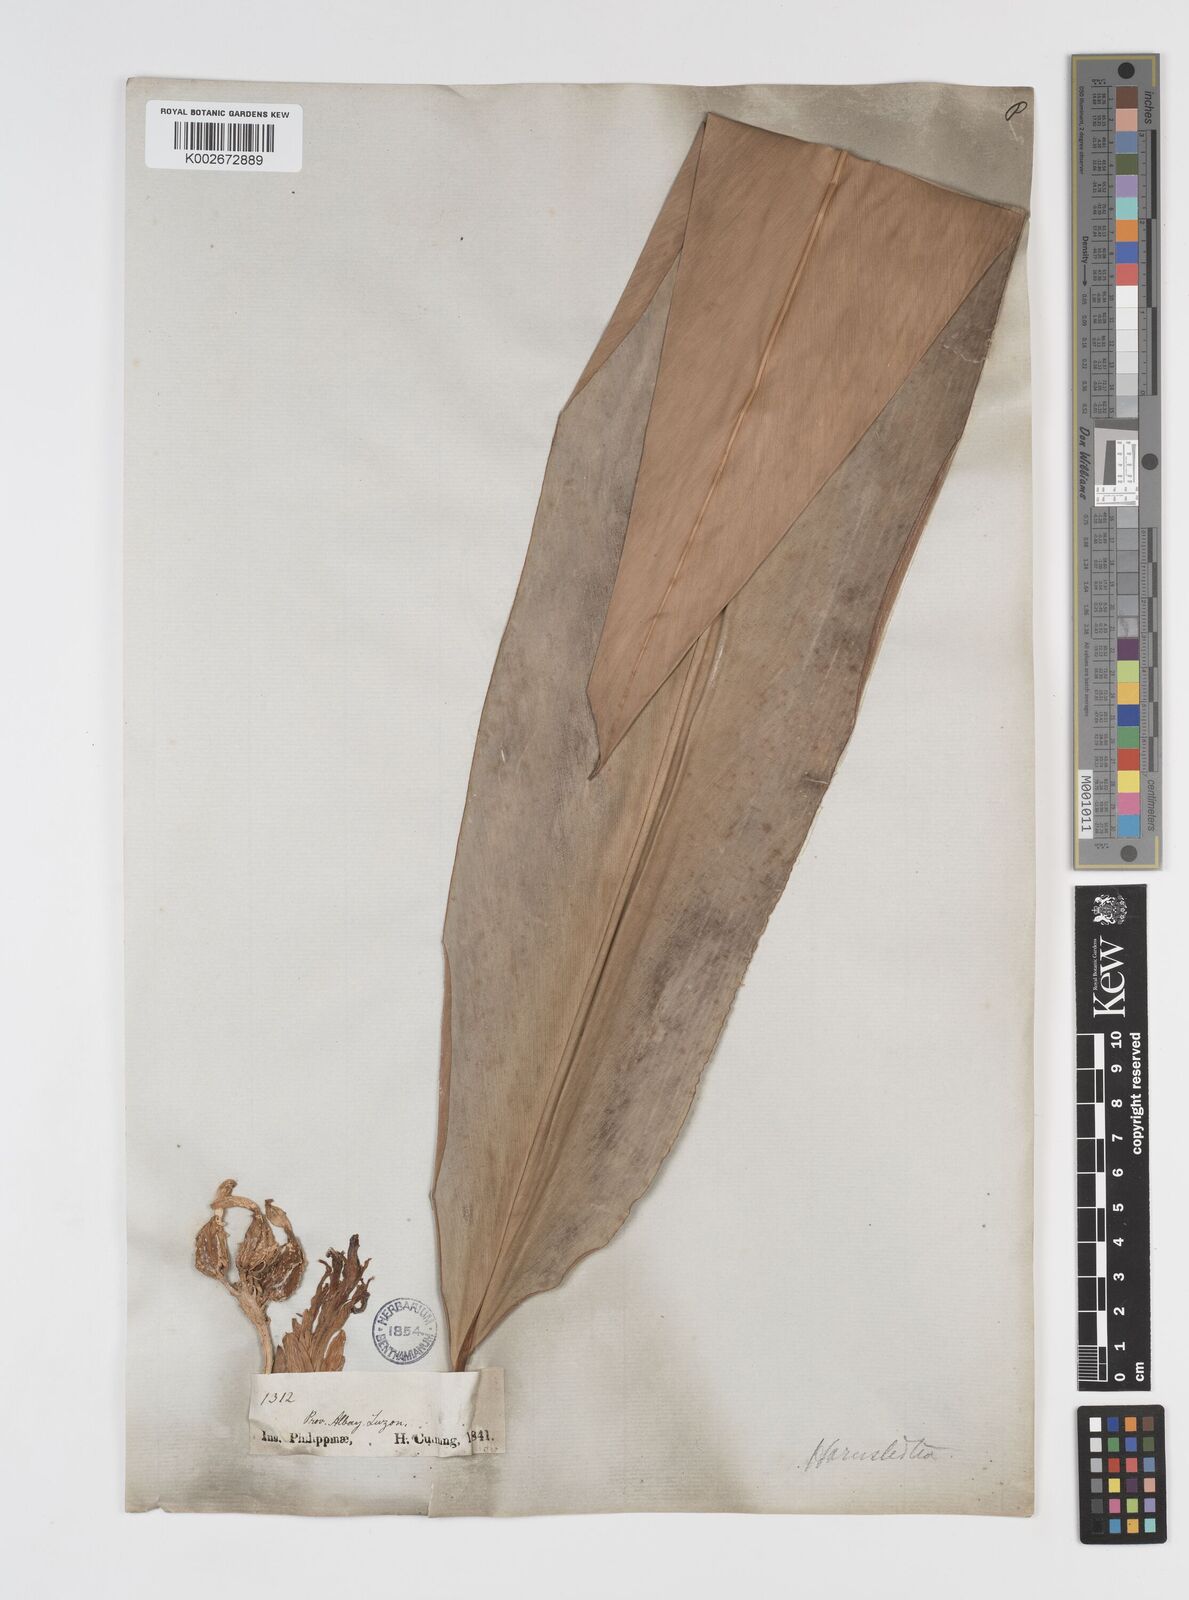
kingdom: Plantae
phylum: Tracheophyta
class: Liliopsida
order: Zingiberales
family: Zingiberaceae
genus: Etlingera
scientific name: Etlingera
